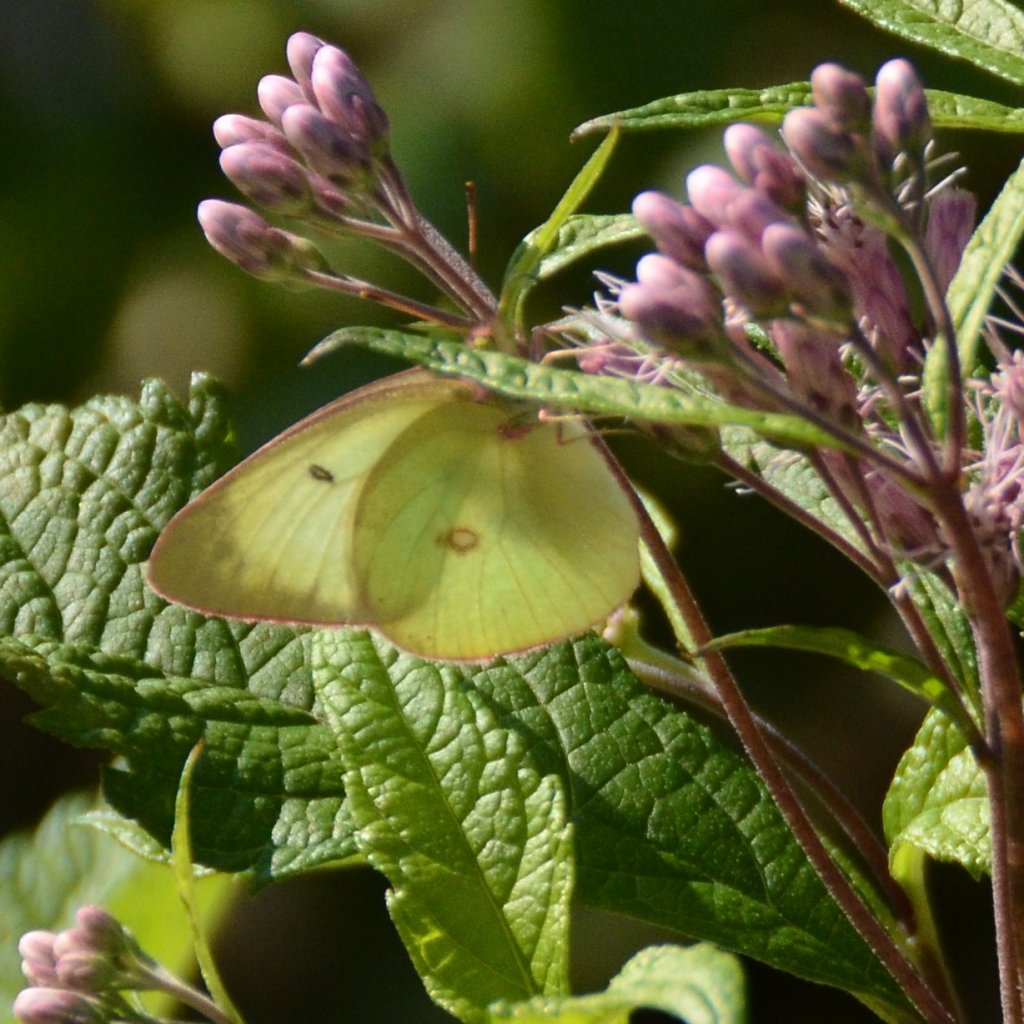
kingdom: Animalia
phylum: Arthropoda
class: Insecta
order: Lepidoptera
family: Pieridae
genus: Colias
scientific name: Colias interior
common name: Pink-edged Sulphur
